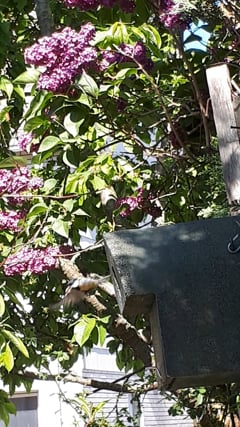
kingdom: Animalia
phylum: Chordata
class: Aves
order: Passeriformes
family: Paridae
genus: Parus
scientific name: Parus major
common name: Great tit
